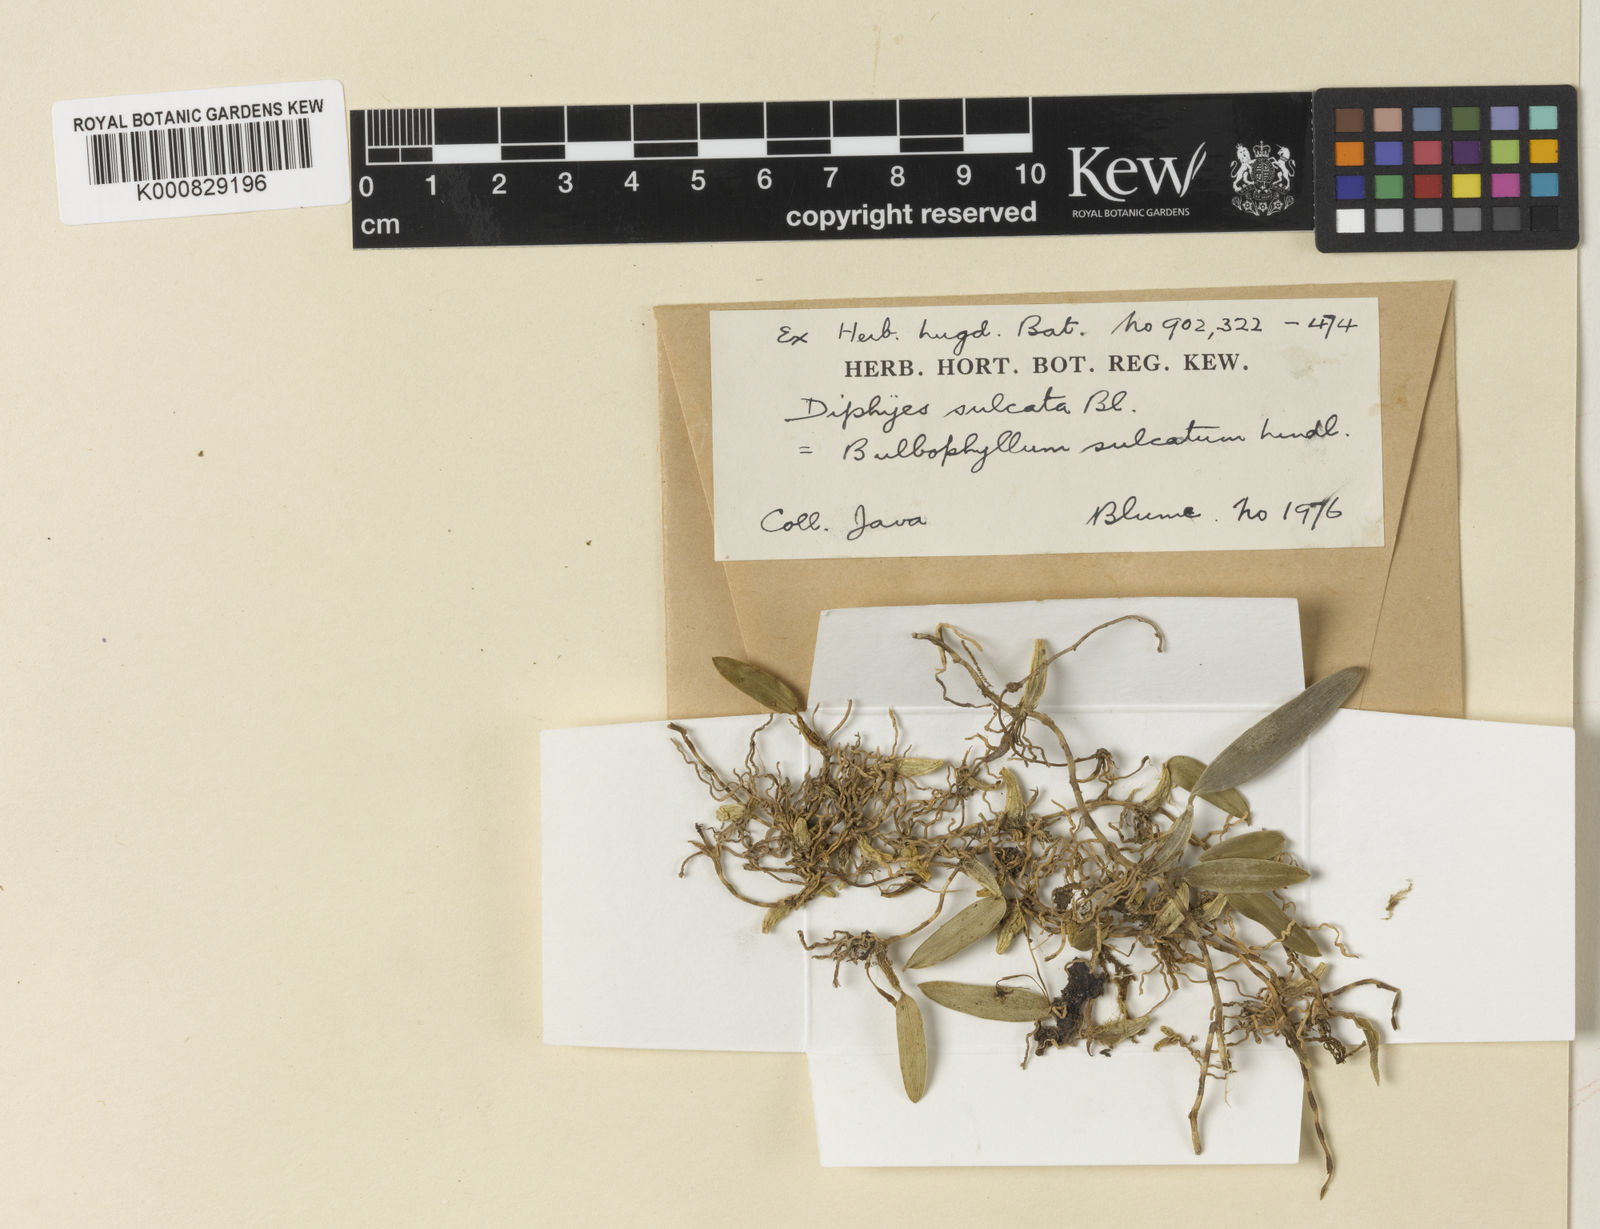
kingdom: Plantae
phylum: Tracheophyta
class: Liliopsida
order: Asparagales
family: Orchidaceae
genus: Bulbophyllum
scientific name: Bulbophyllum sulcatum
